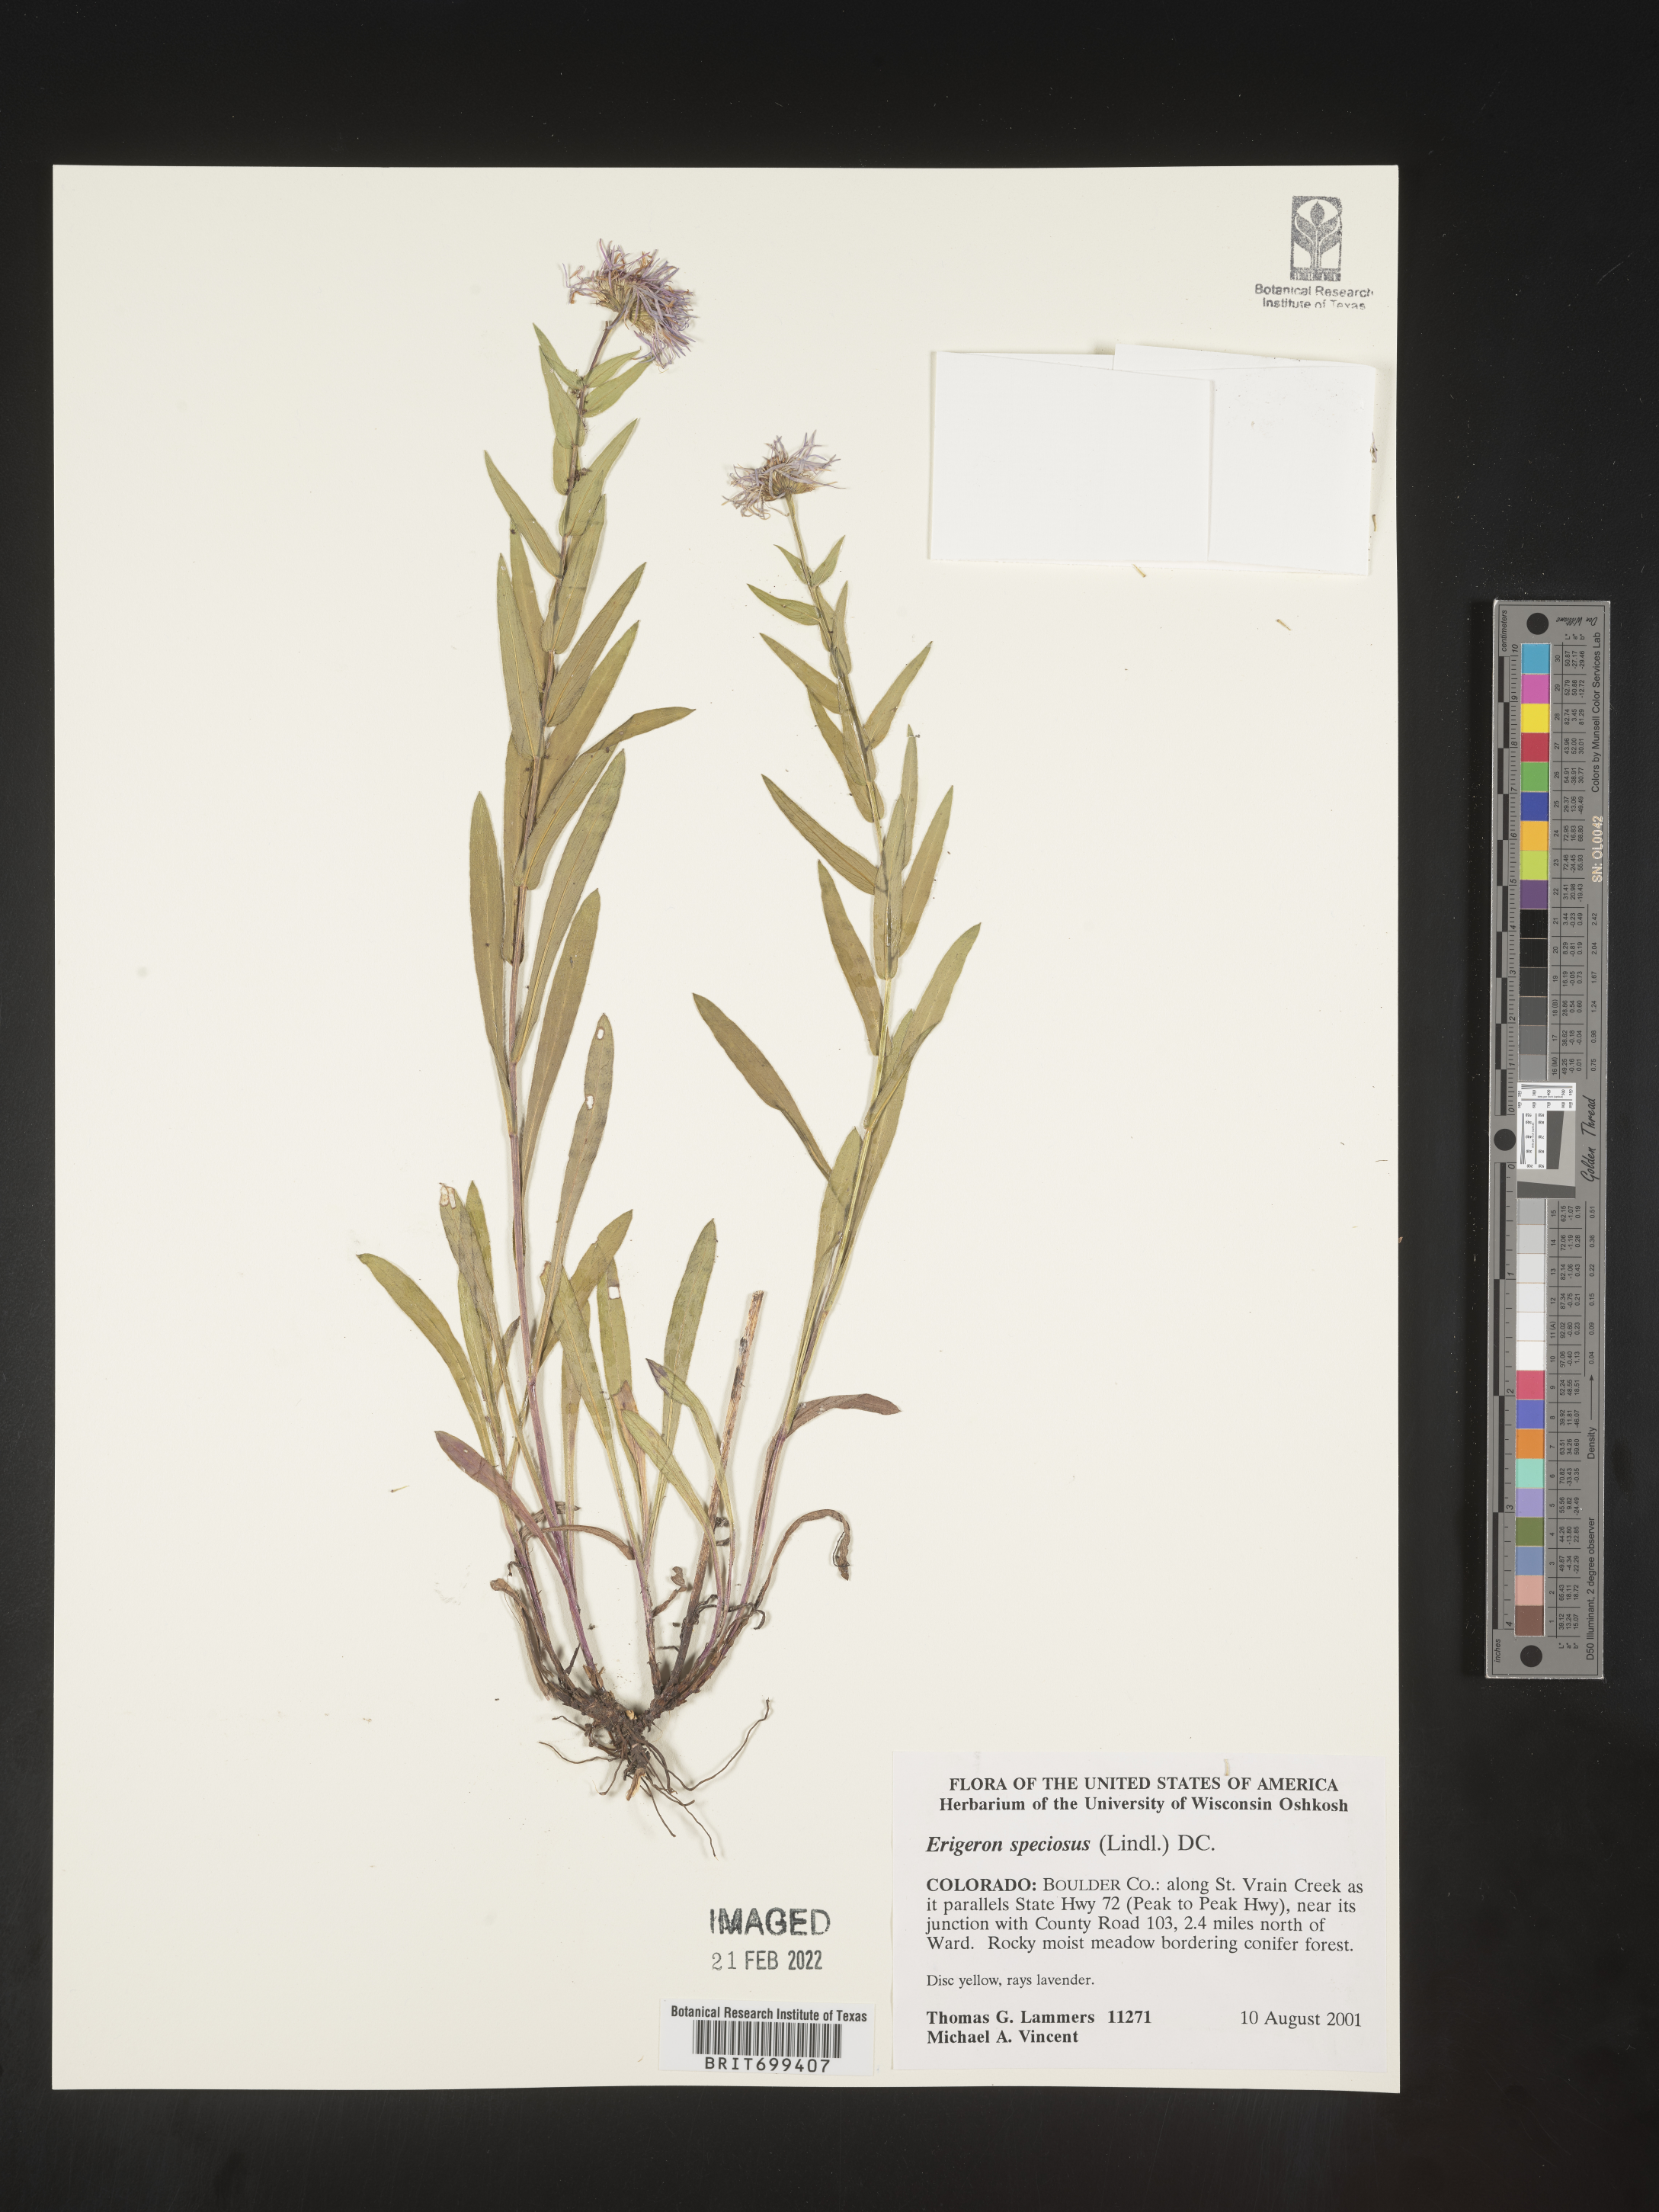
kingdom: Plantae
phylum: Tracheophyta
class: Magnoliopsida
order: Asterales
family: Asteraceae
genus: Erigeron
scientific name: Erigeron speciosus
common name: Aspen fleabane
